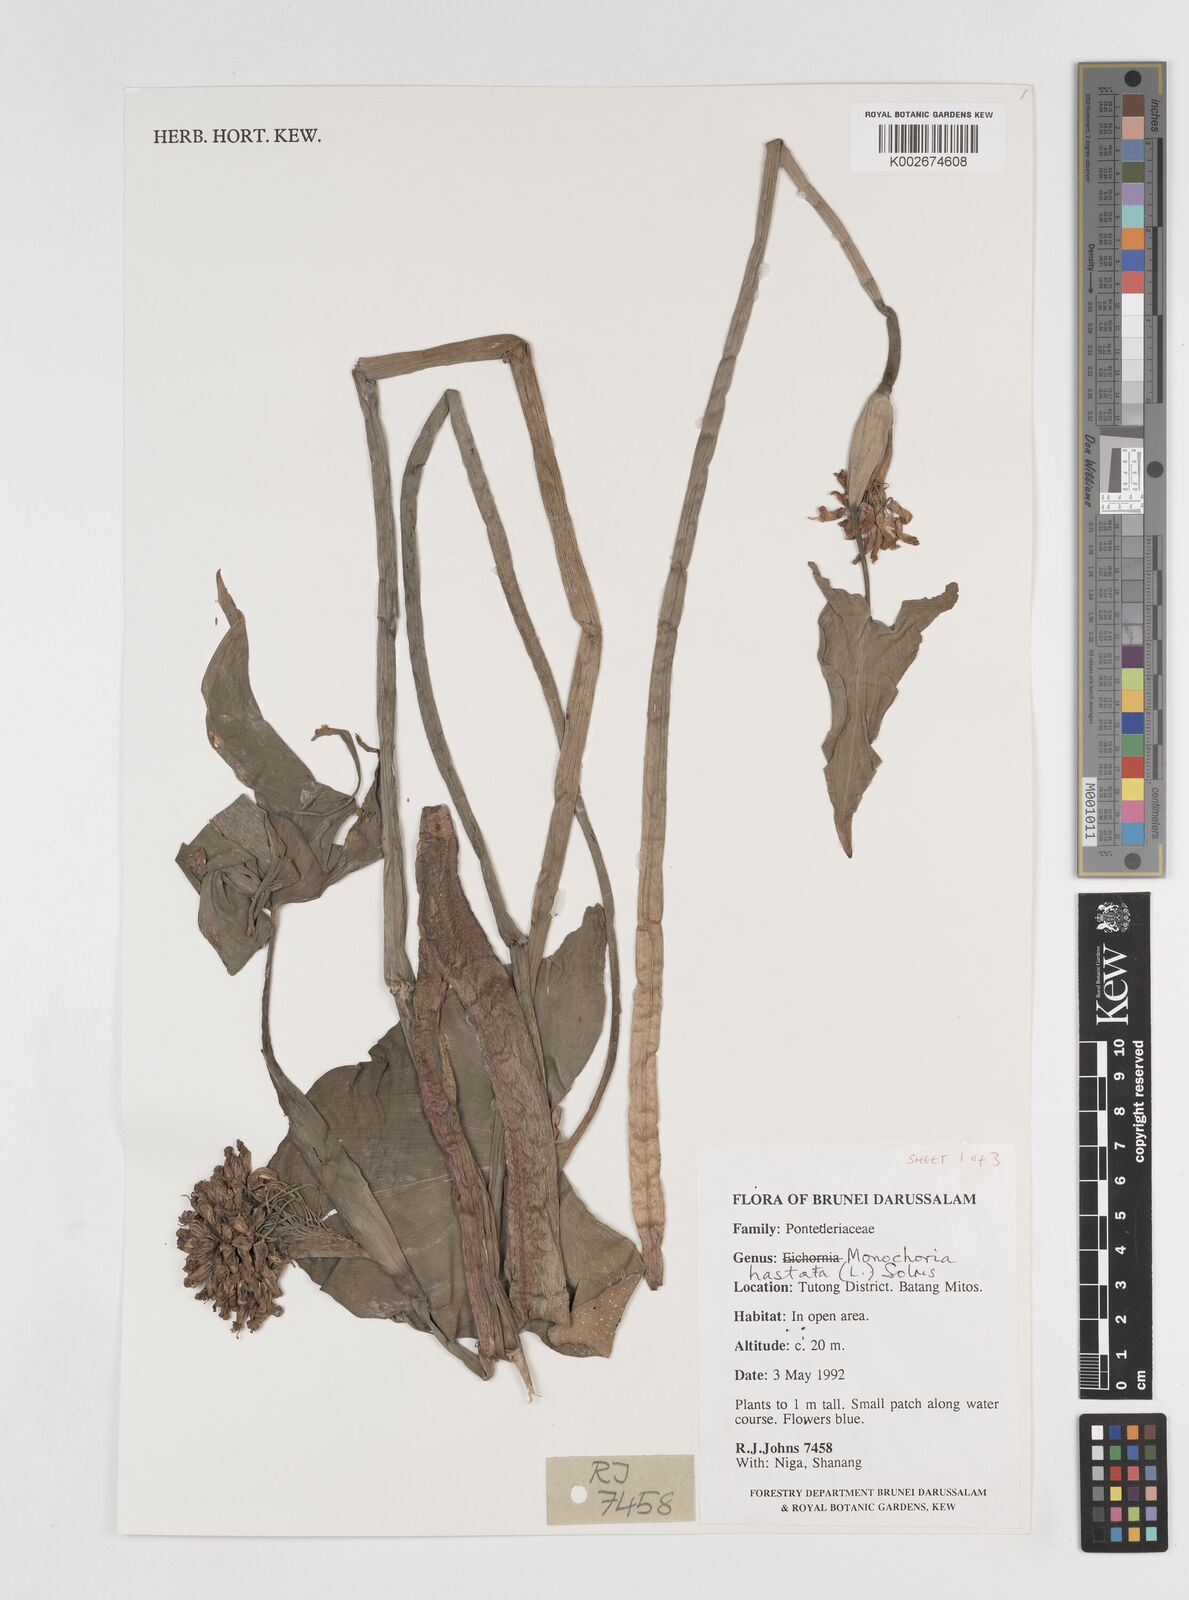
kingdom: Plantae
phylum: Tracheophyta
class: Liliopsida
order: Commelinales
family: Pontederiaceae
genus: Pontederia
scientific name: Pontederia hastata
